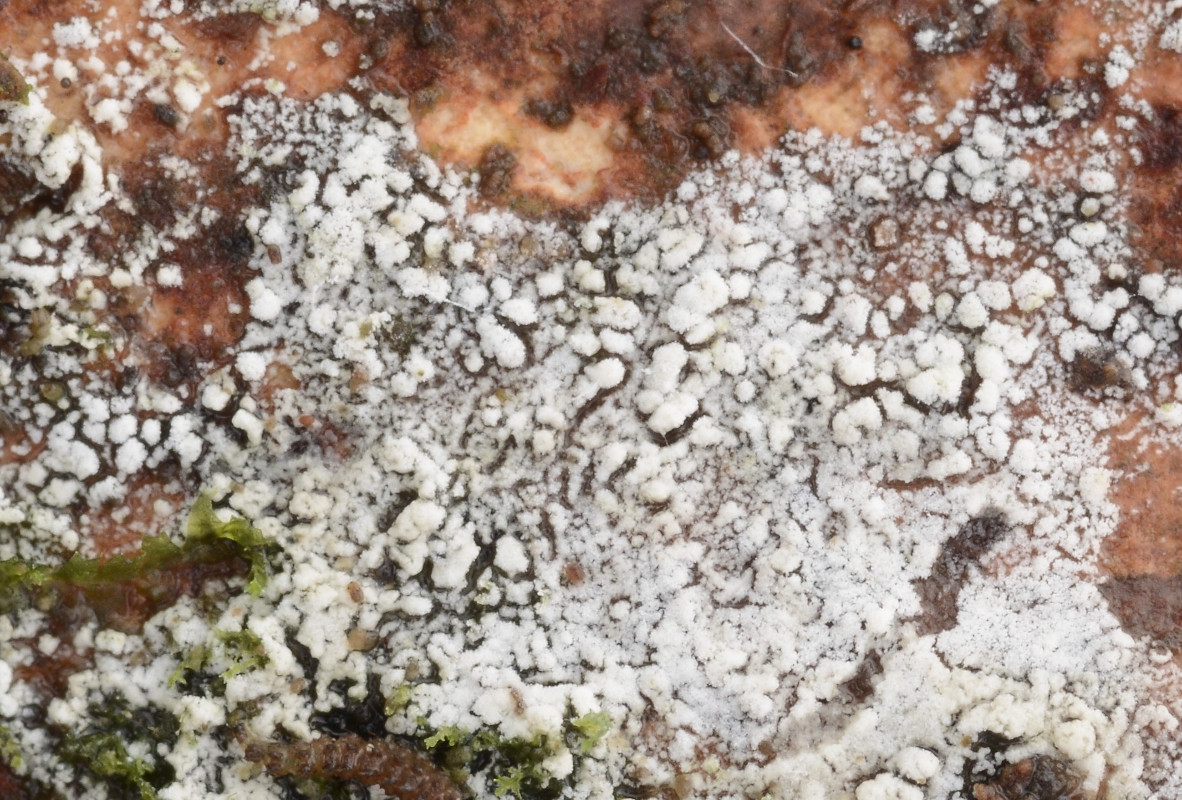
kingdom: Fungi
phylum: Basidiomycota
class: Agaricomycetes
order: Russulales
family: Russulaceae
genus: Boidinia
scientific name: Boidinia furfuracea
